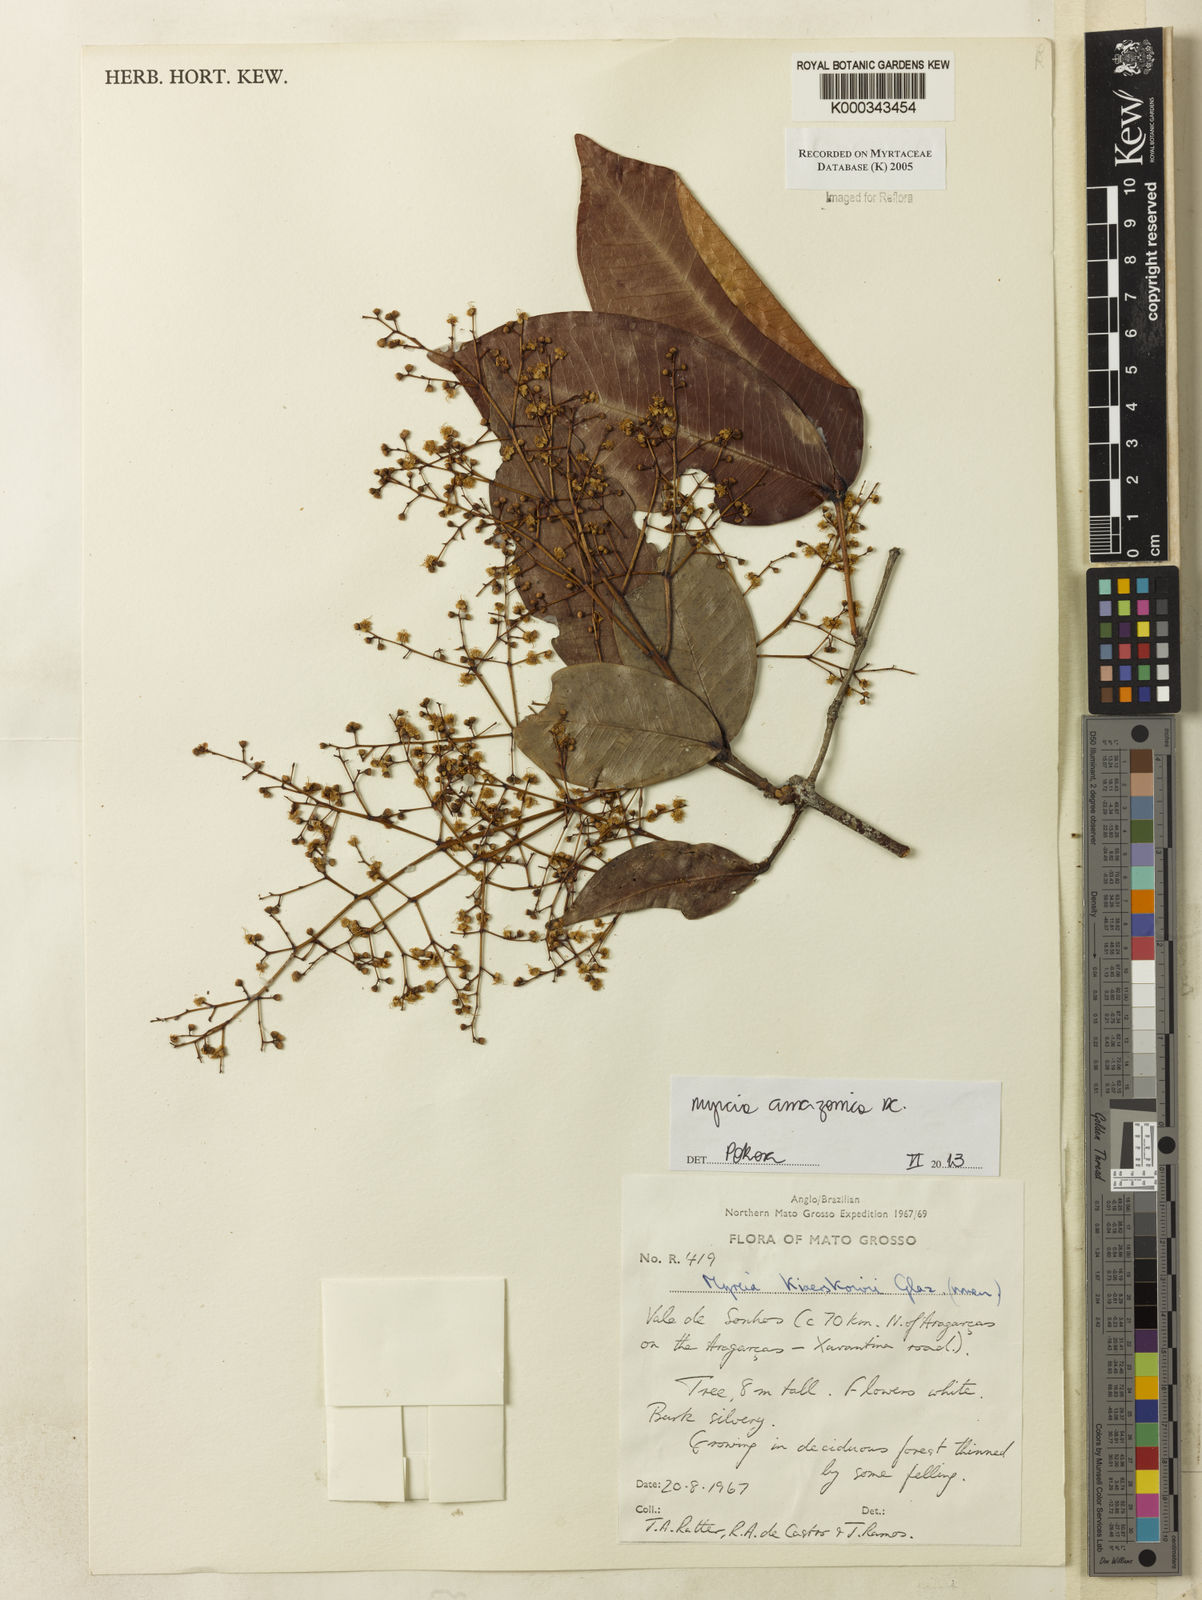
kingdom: Plantae
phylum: Tracheophyta
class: Magnoliopsida
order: Myrtales
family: Myrtaceae
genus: Myrcia
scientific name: Myrcia
